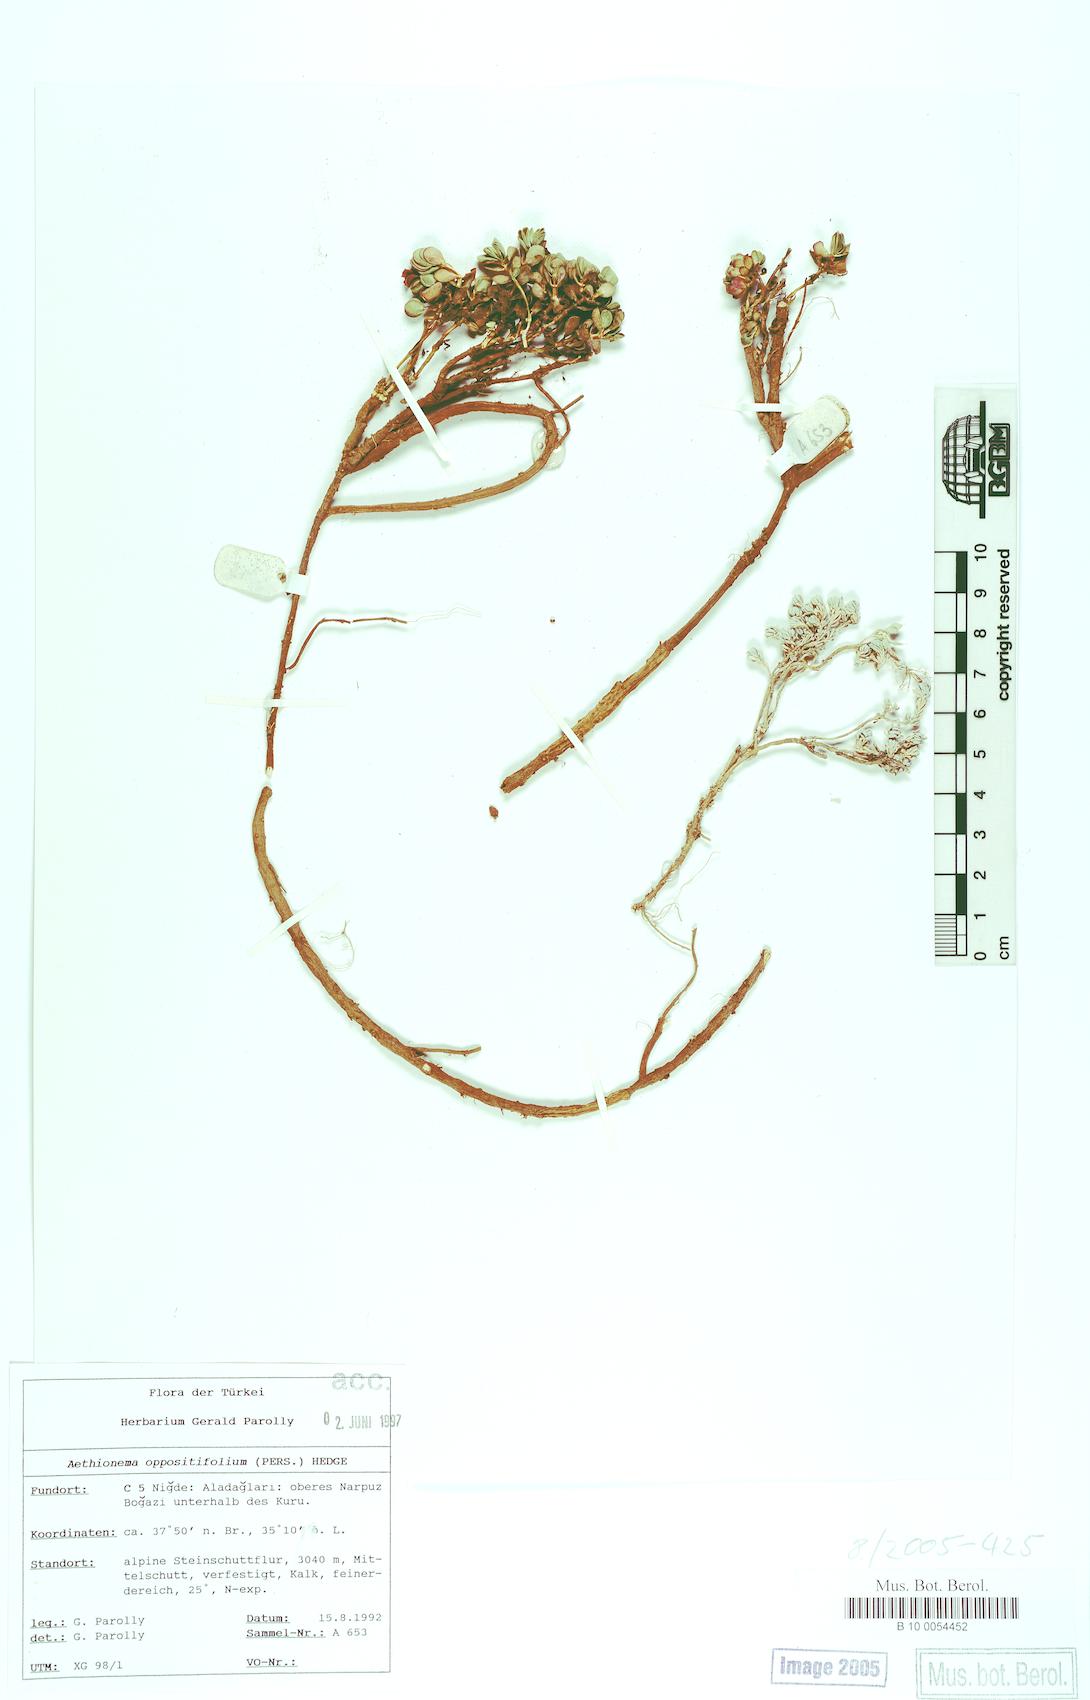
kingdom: Plantae
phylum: Tracheophyta
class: Magnoliopsida
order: Brassicales
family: Brassicaceae
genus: Noccaea
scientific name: Noccaea oppositifolia
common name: Twin-leaf stone-cress
